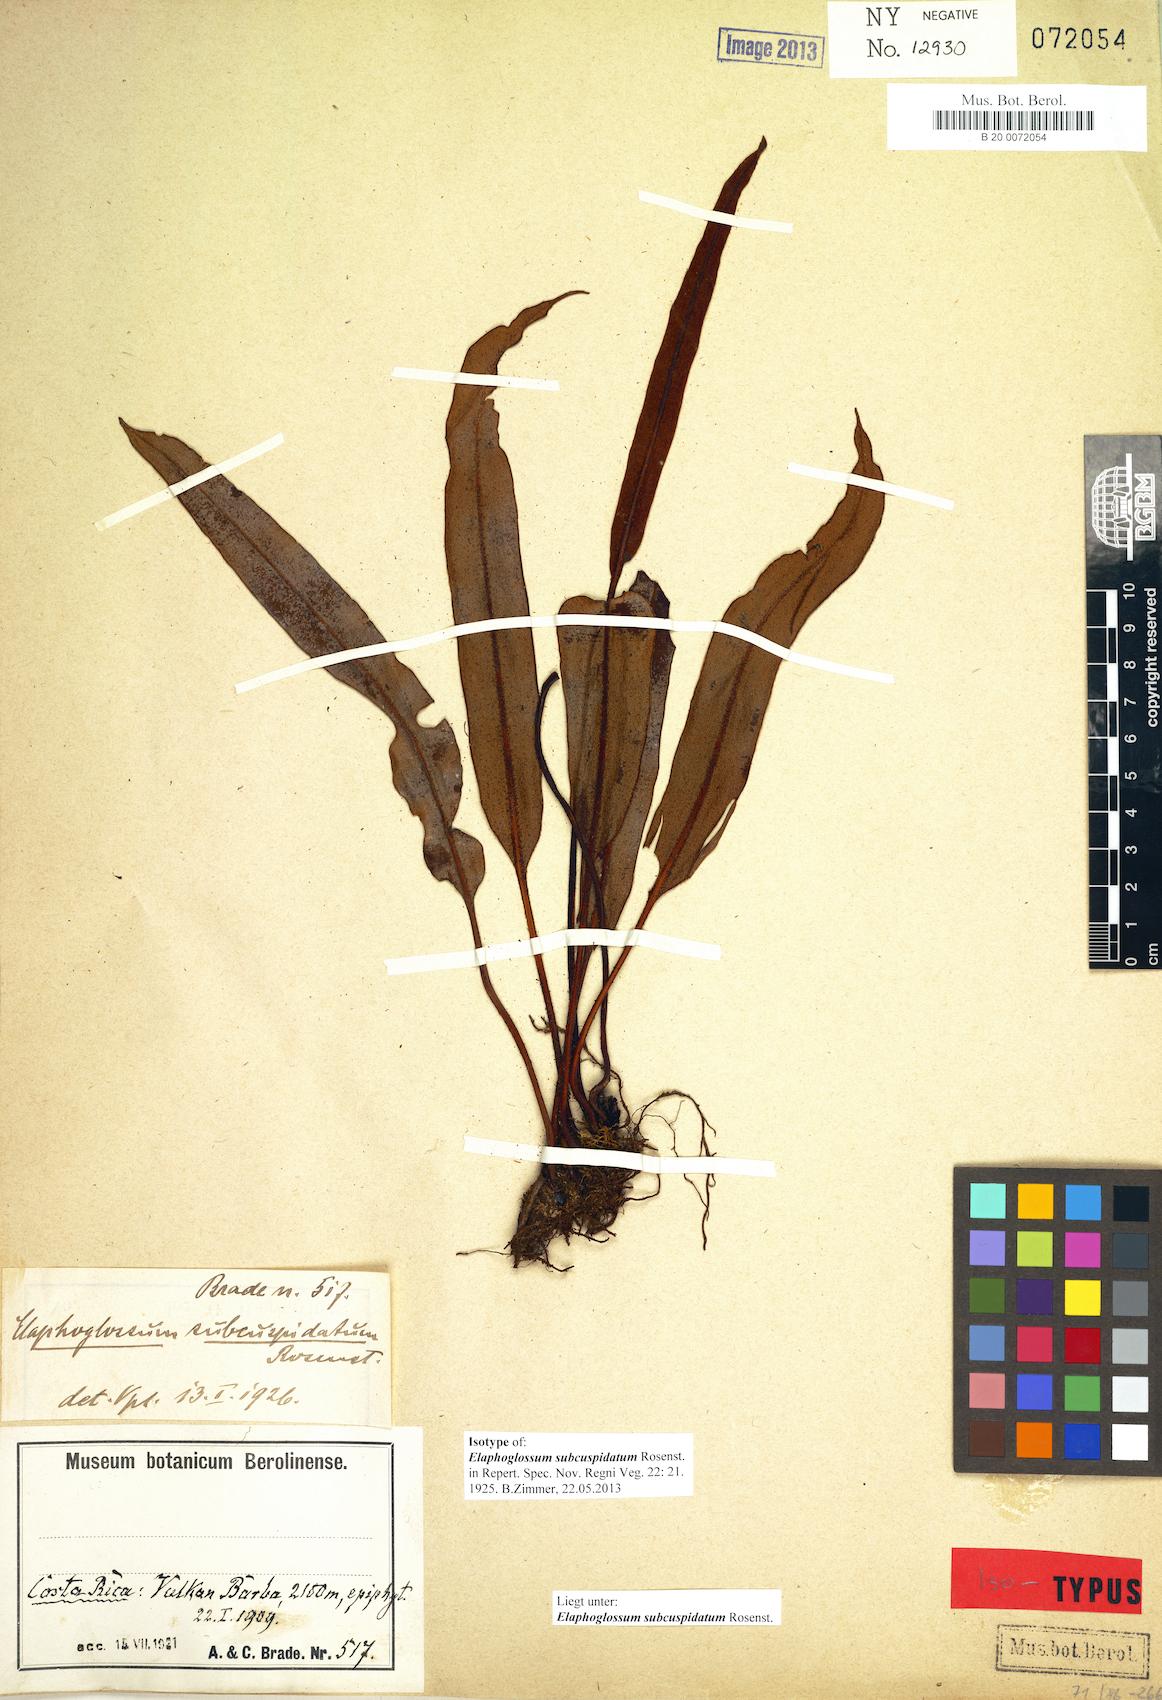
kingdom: Plantae
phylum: Tracheophyta
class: Polypodiopsida
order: Polypodiales
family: Dryopteridaceae
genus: Elaphoglossum
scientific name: Elaphoglossum cuspidatum
